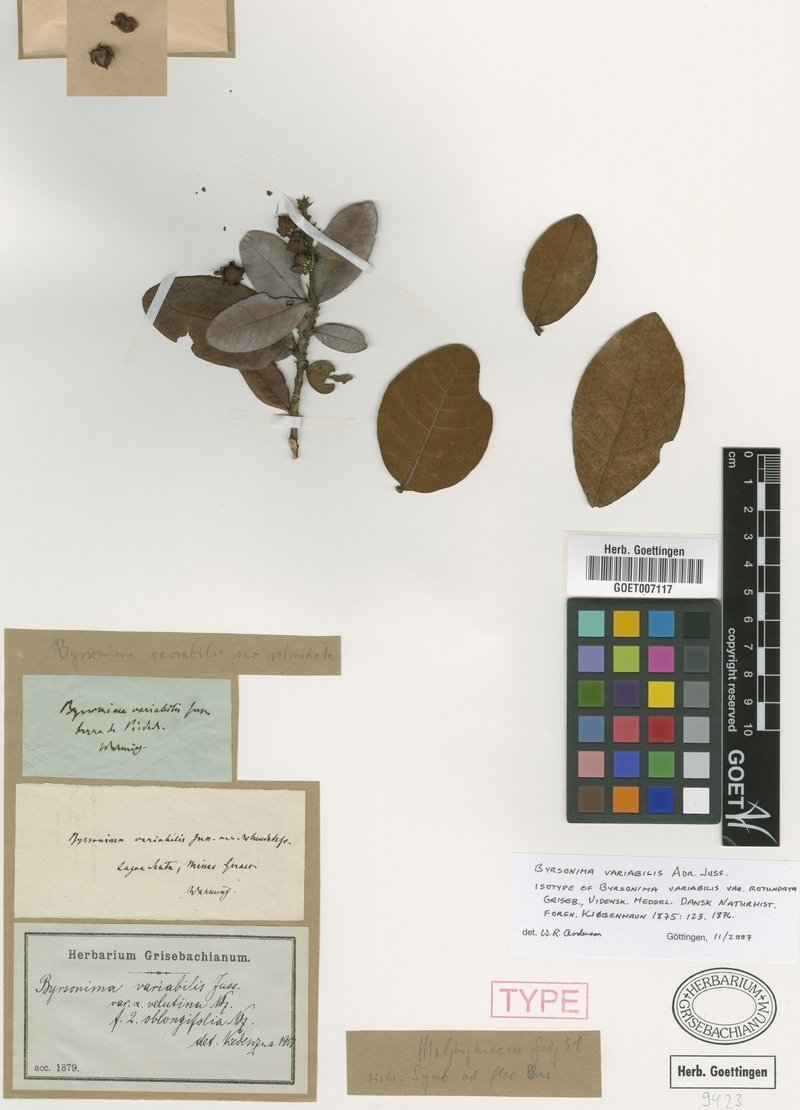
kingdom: Plantae
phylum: Tracheophyta
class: Magnoliopsida
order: Malpighiales
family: Malpighiaceae
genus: Byrsonima
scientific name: Byrsonima variabilis
